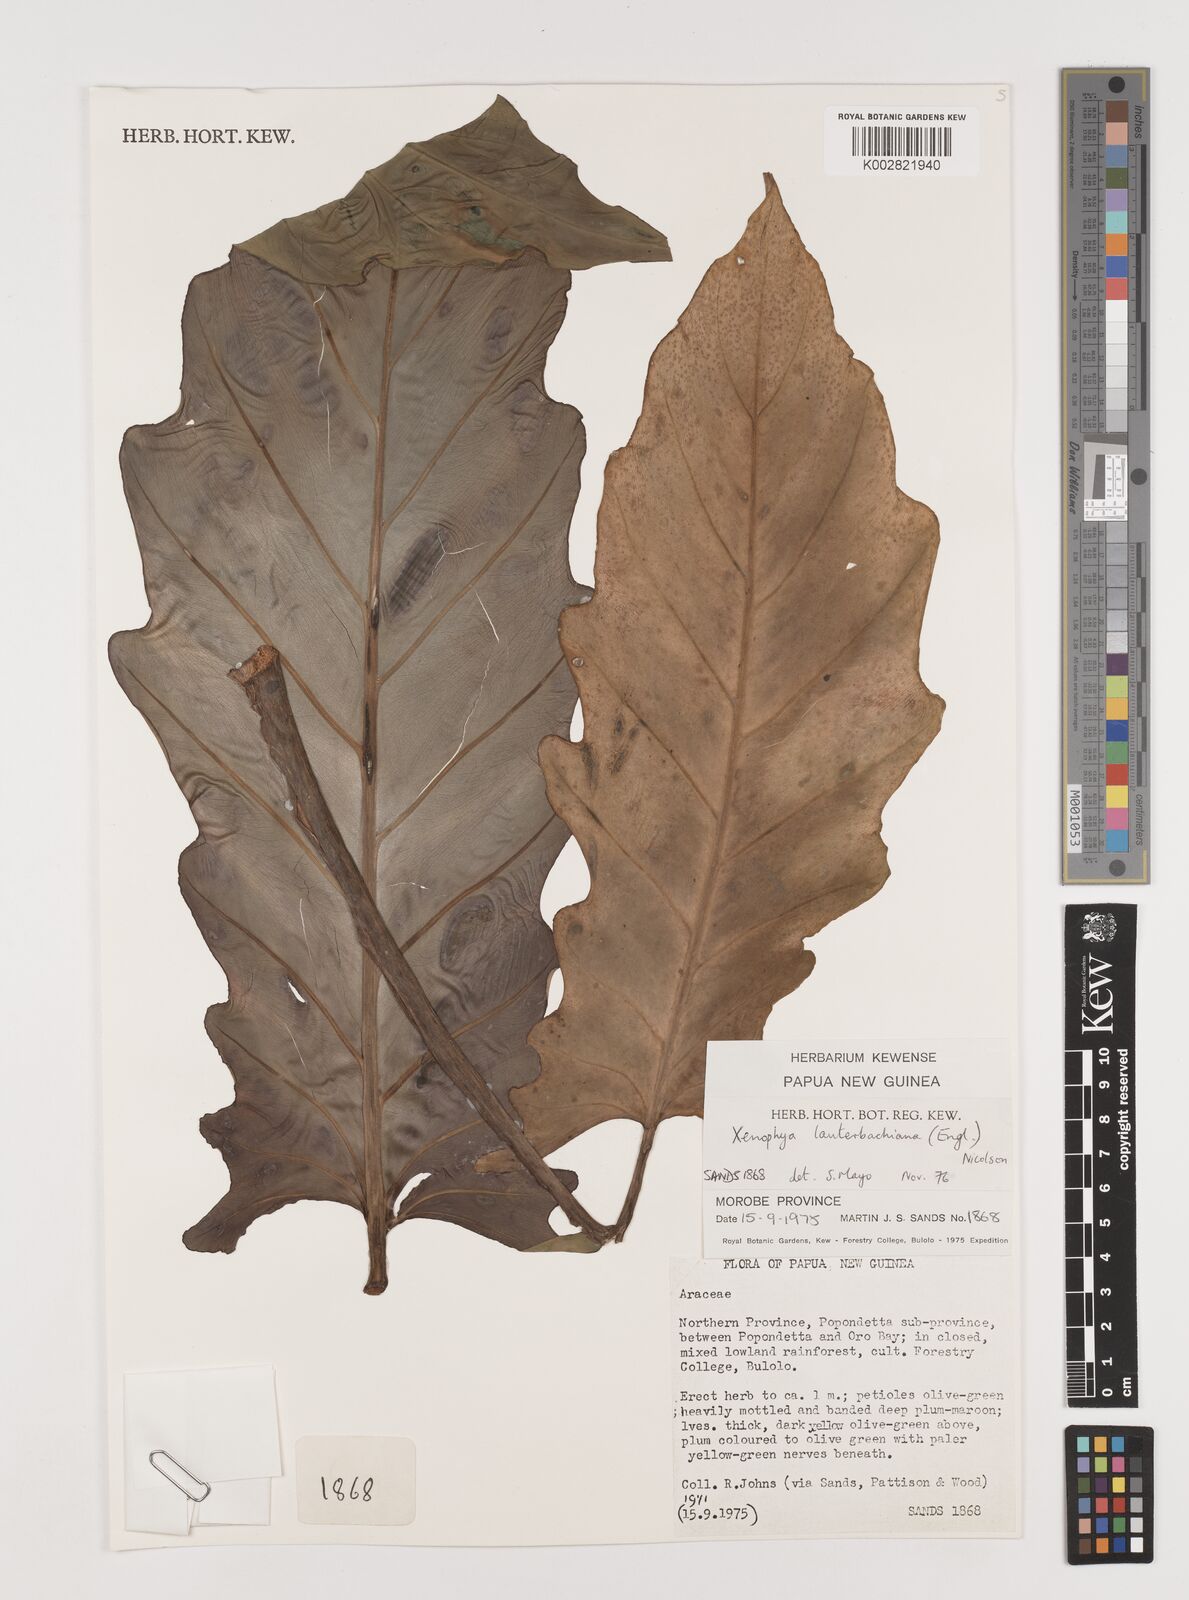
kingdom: Plantae
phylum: Tracheophyta
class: Liliopsida
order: Alismatales
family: Araceae
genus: Alocasia
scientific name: Alocasia lauterbachiana
